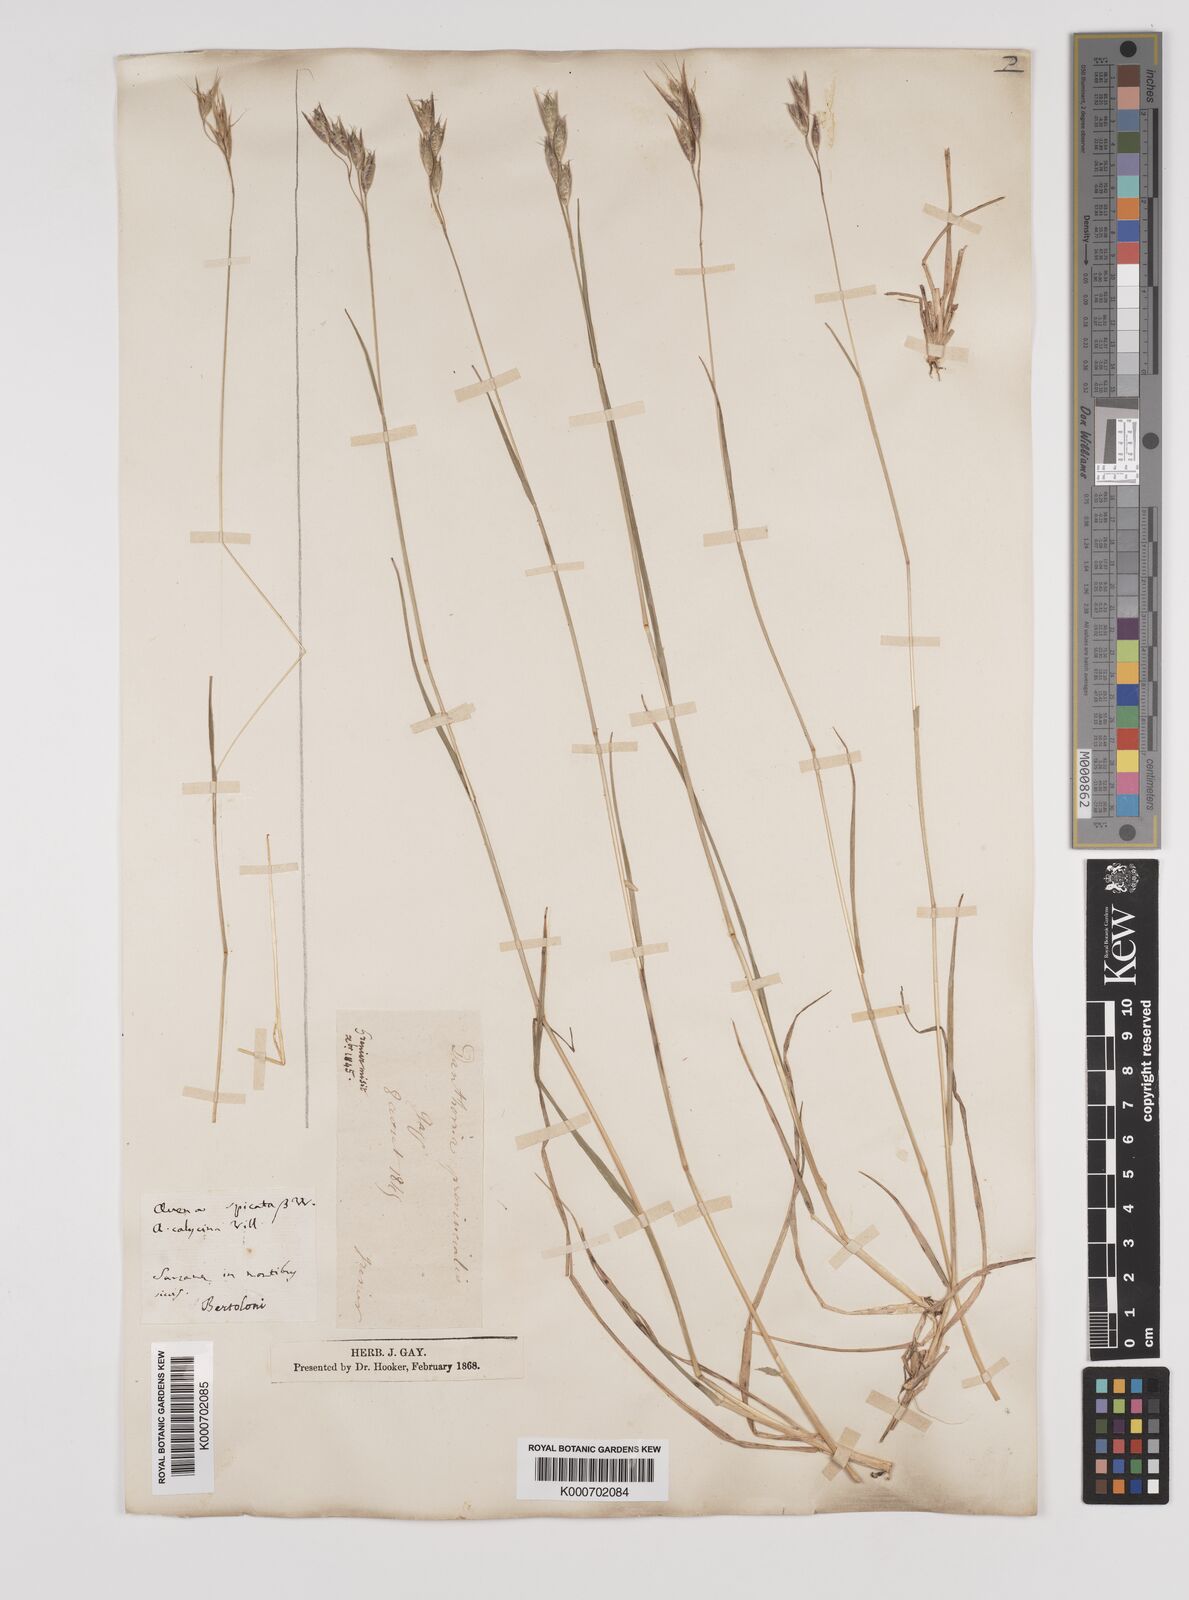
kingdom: Plantae
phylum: Tracheophyta
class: Liliopsida
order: Poales
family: Poaceae
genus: Danthonia
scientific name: Danthonia alpina
